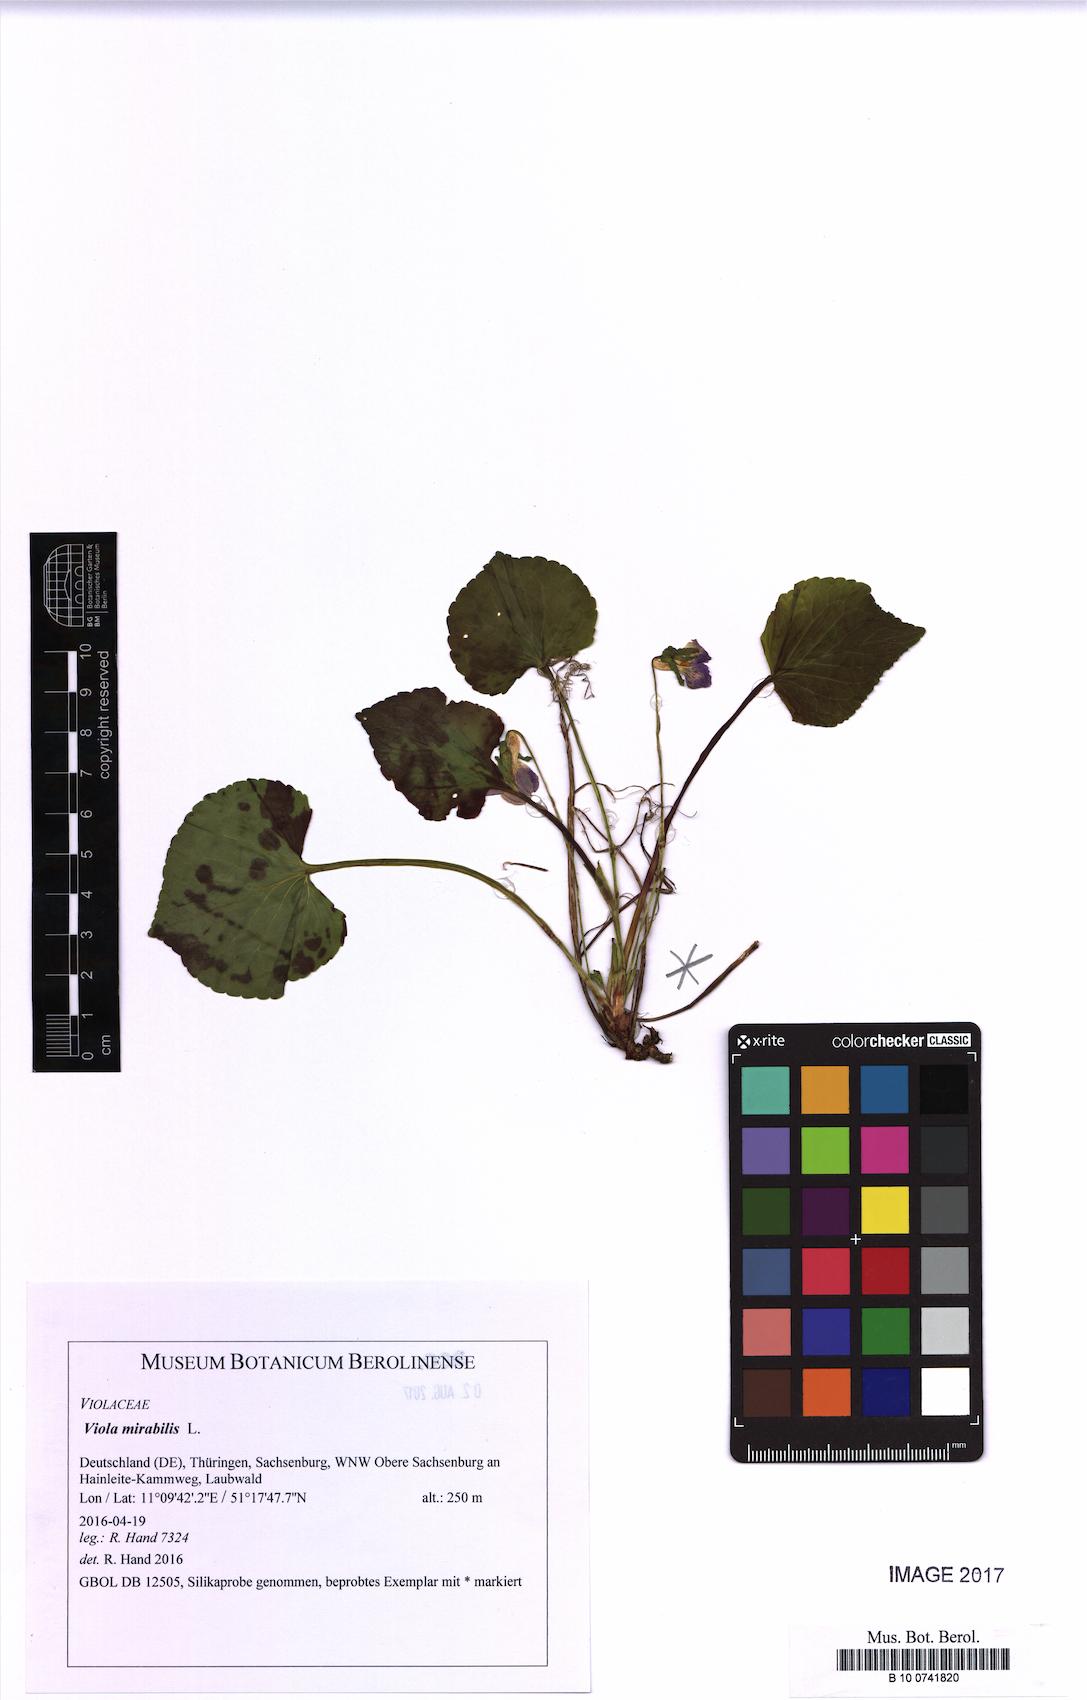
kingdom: Plantae
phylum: Tracheophyta
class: Magnoliopsida
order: Malpighiales
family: Violaceae
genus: Viola
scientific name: Viola mirabilis
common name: Wonder violet
